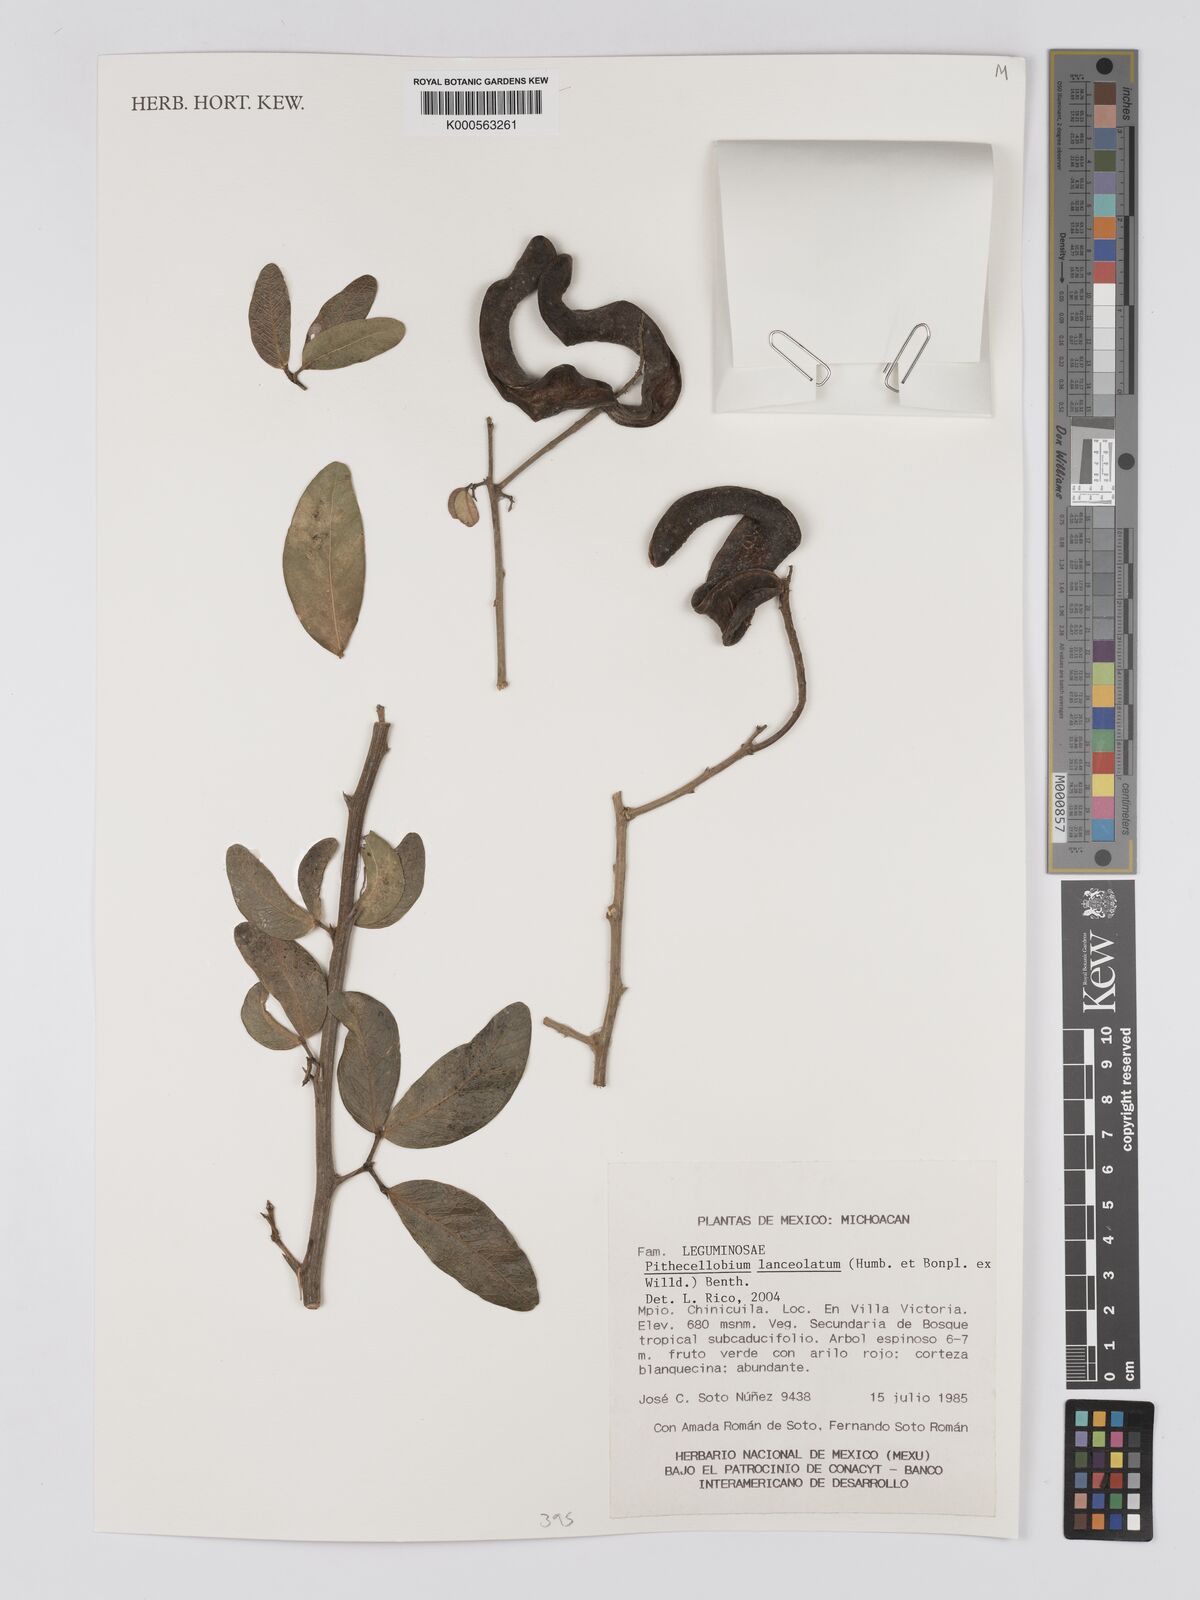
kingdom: Plantae
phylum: Tracheophyta
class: Magnoliopsida
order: Fabales
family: Fabaceae
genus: Pithecellobium
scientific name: Pithecellobium lanceolatum
